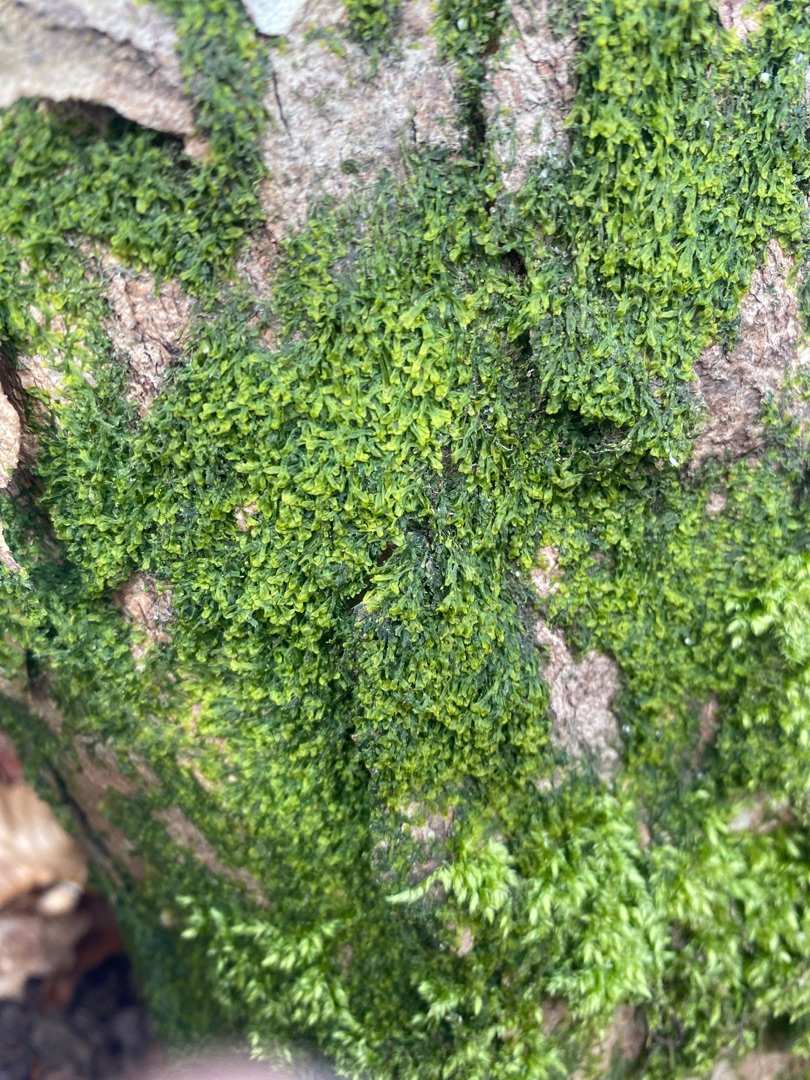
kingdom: Plantae
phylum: Marchantiophyta
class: Jungermanniopsida
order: Metzgeriales
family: Metzgeriaceae
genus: Metzgeria
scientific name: Metzgeria furcata
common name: Almindelig gaffelløv
